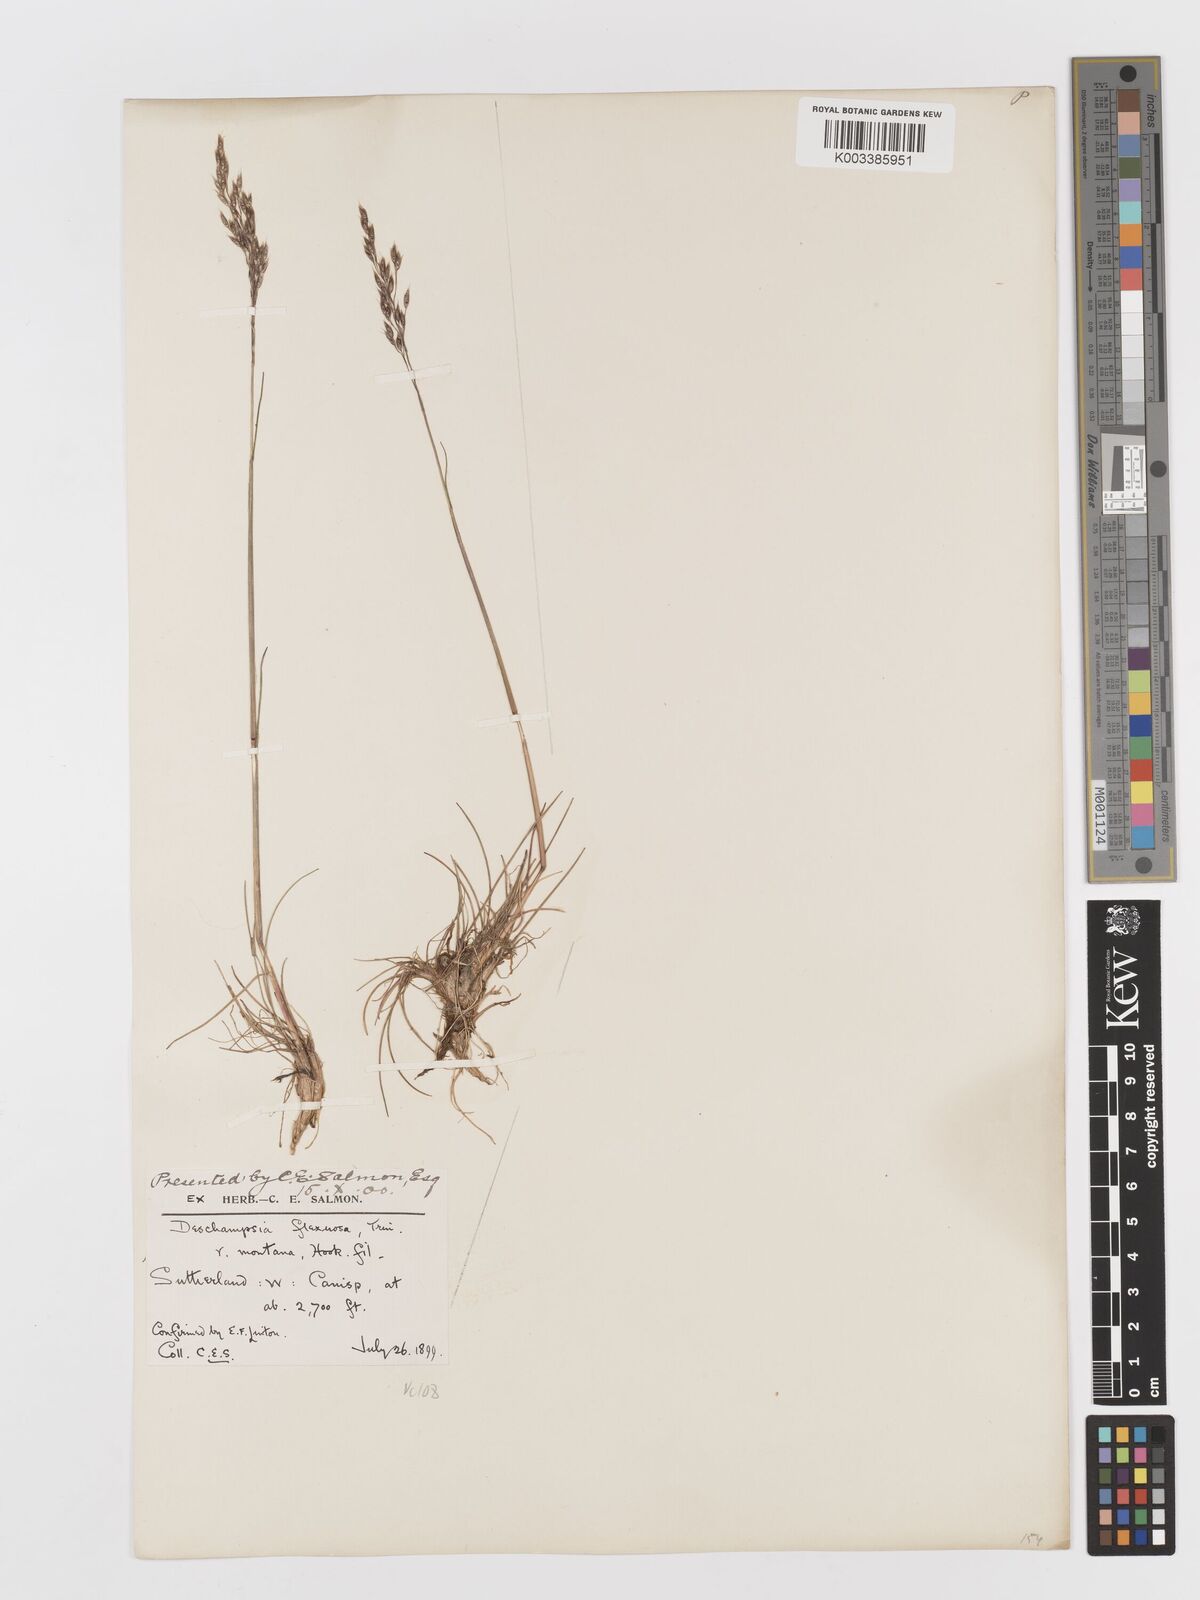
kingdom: Plantae
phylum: Tracheophyta
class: Liliopsida
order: Poales
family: Poaceae
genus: Avenella
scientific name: Avenella flexuosa
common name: Wavy hairgrass
